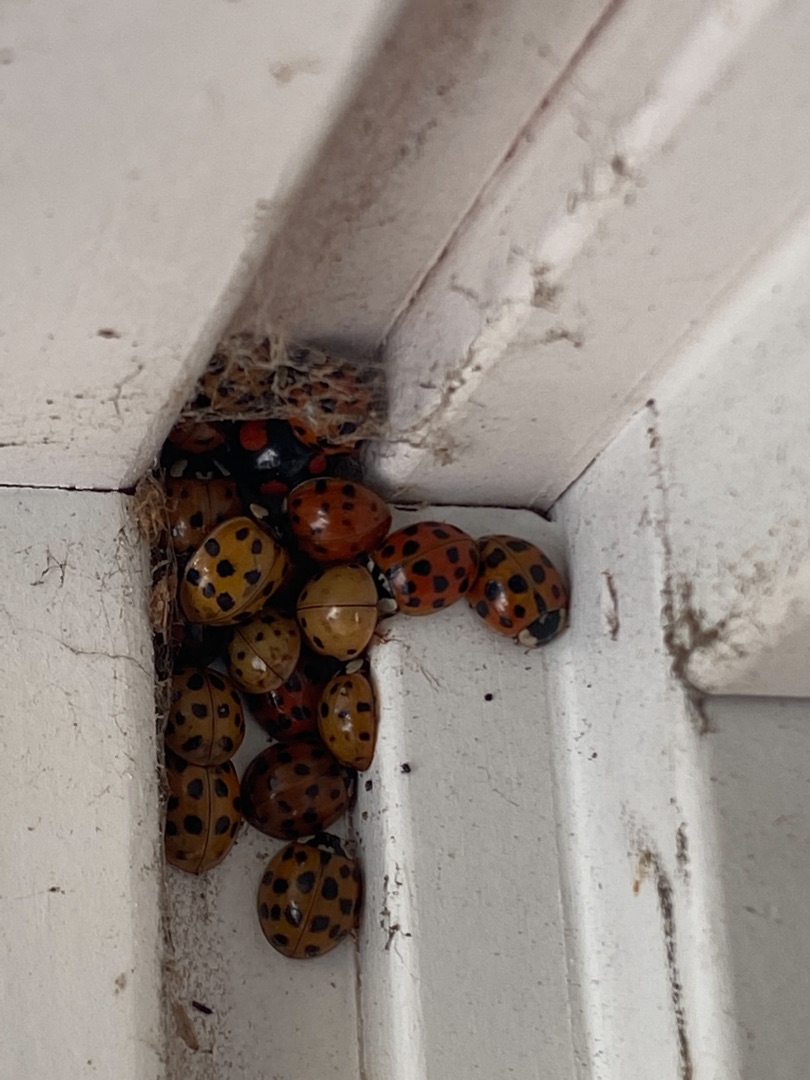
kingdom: Animalia
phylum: Arthropoda
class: Insecta
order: Coleoptera
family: Coccinellidae
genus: Harmonia
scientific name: Harmonia axyridis
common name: Harlekinmariehøne
